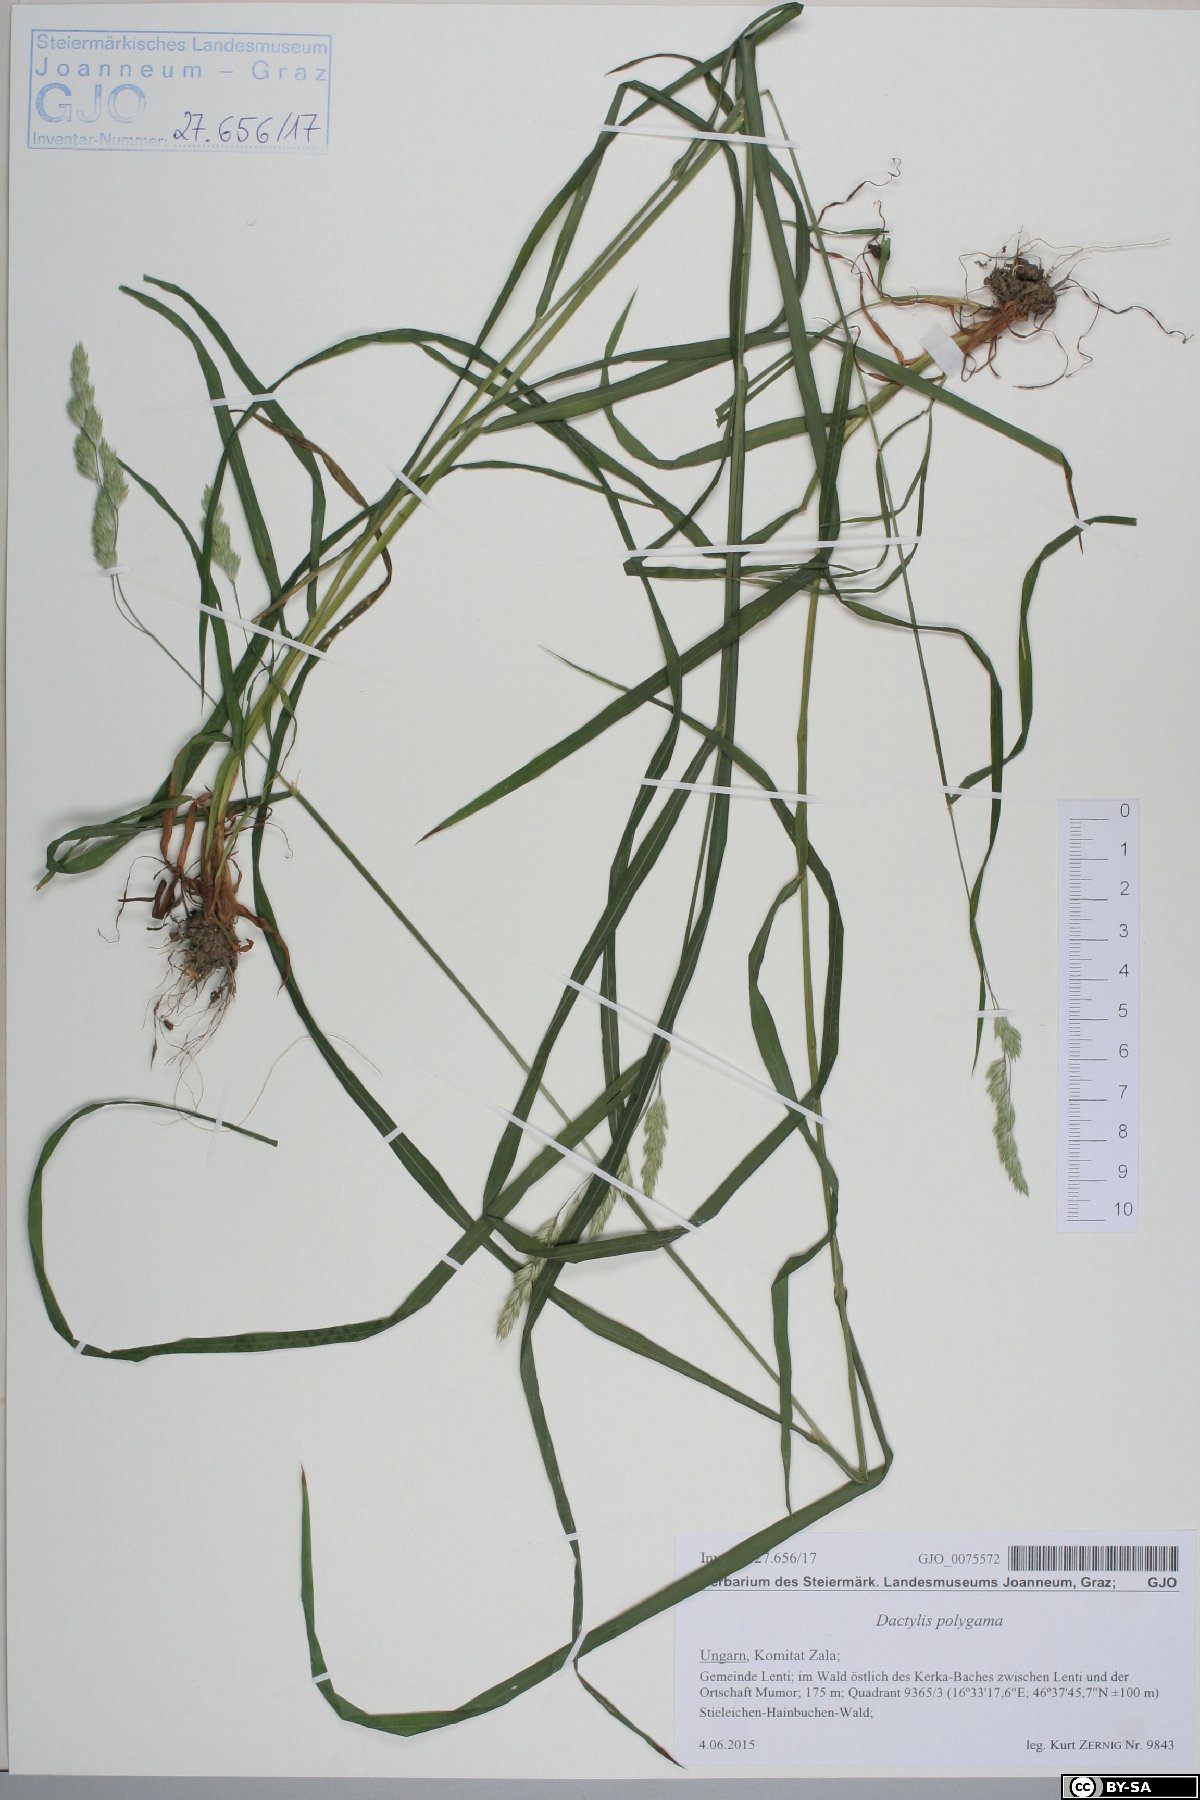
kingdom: Plantae
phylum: Tracheophyta
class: Liliopsida
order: Poales
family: Poaceae
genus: Dactylis
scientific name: Dactylis glomerata
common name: Orchardgrass
